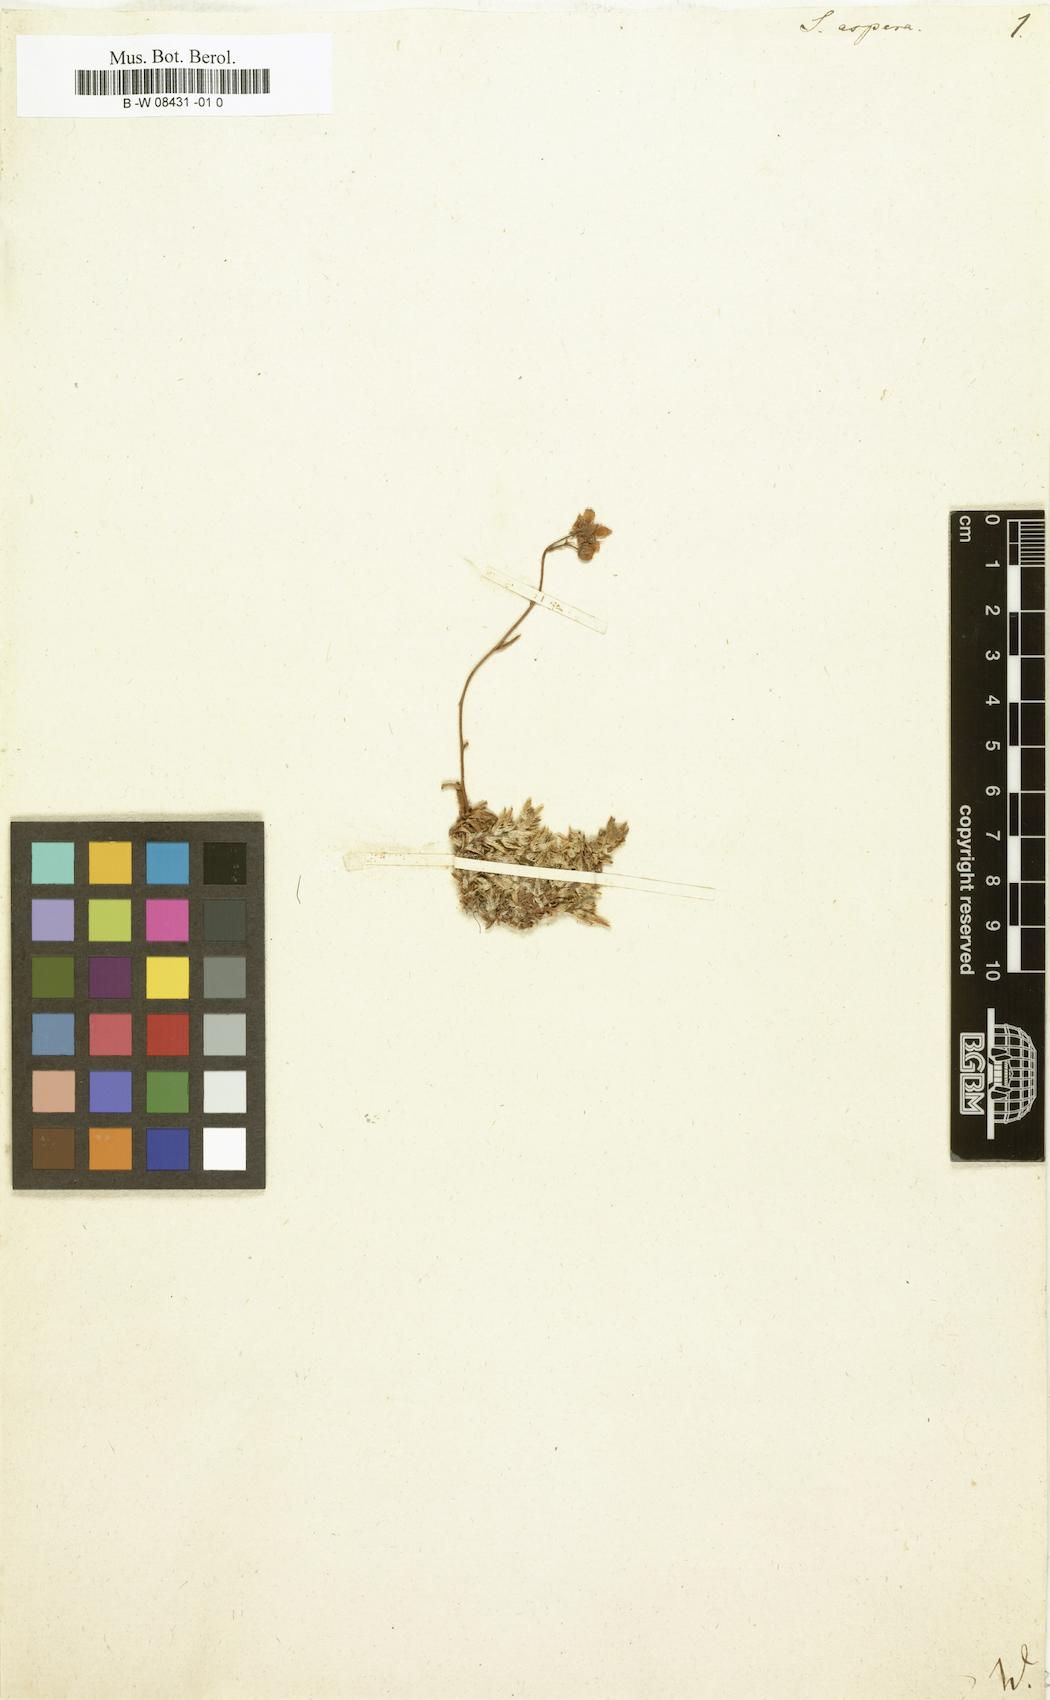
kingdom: Plantae
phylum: Tracheophyta
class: Magnoliopsida
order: Saxifragales
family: Saxifragaceae
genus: Saxifraga
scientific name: Saxifraga aspera
